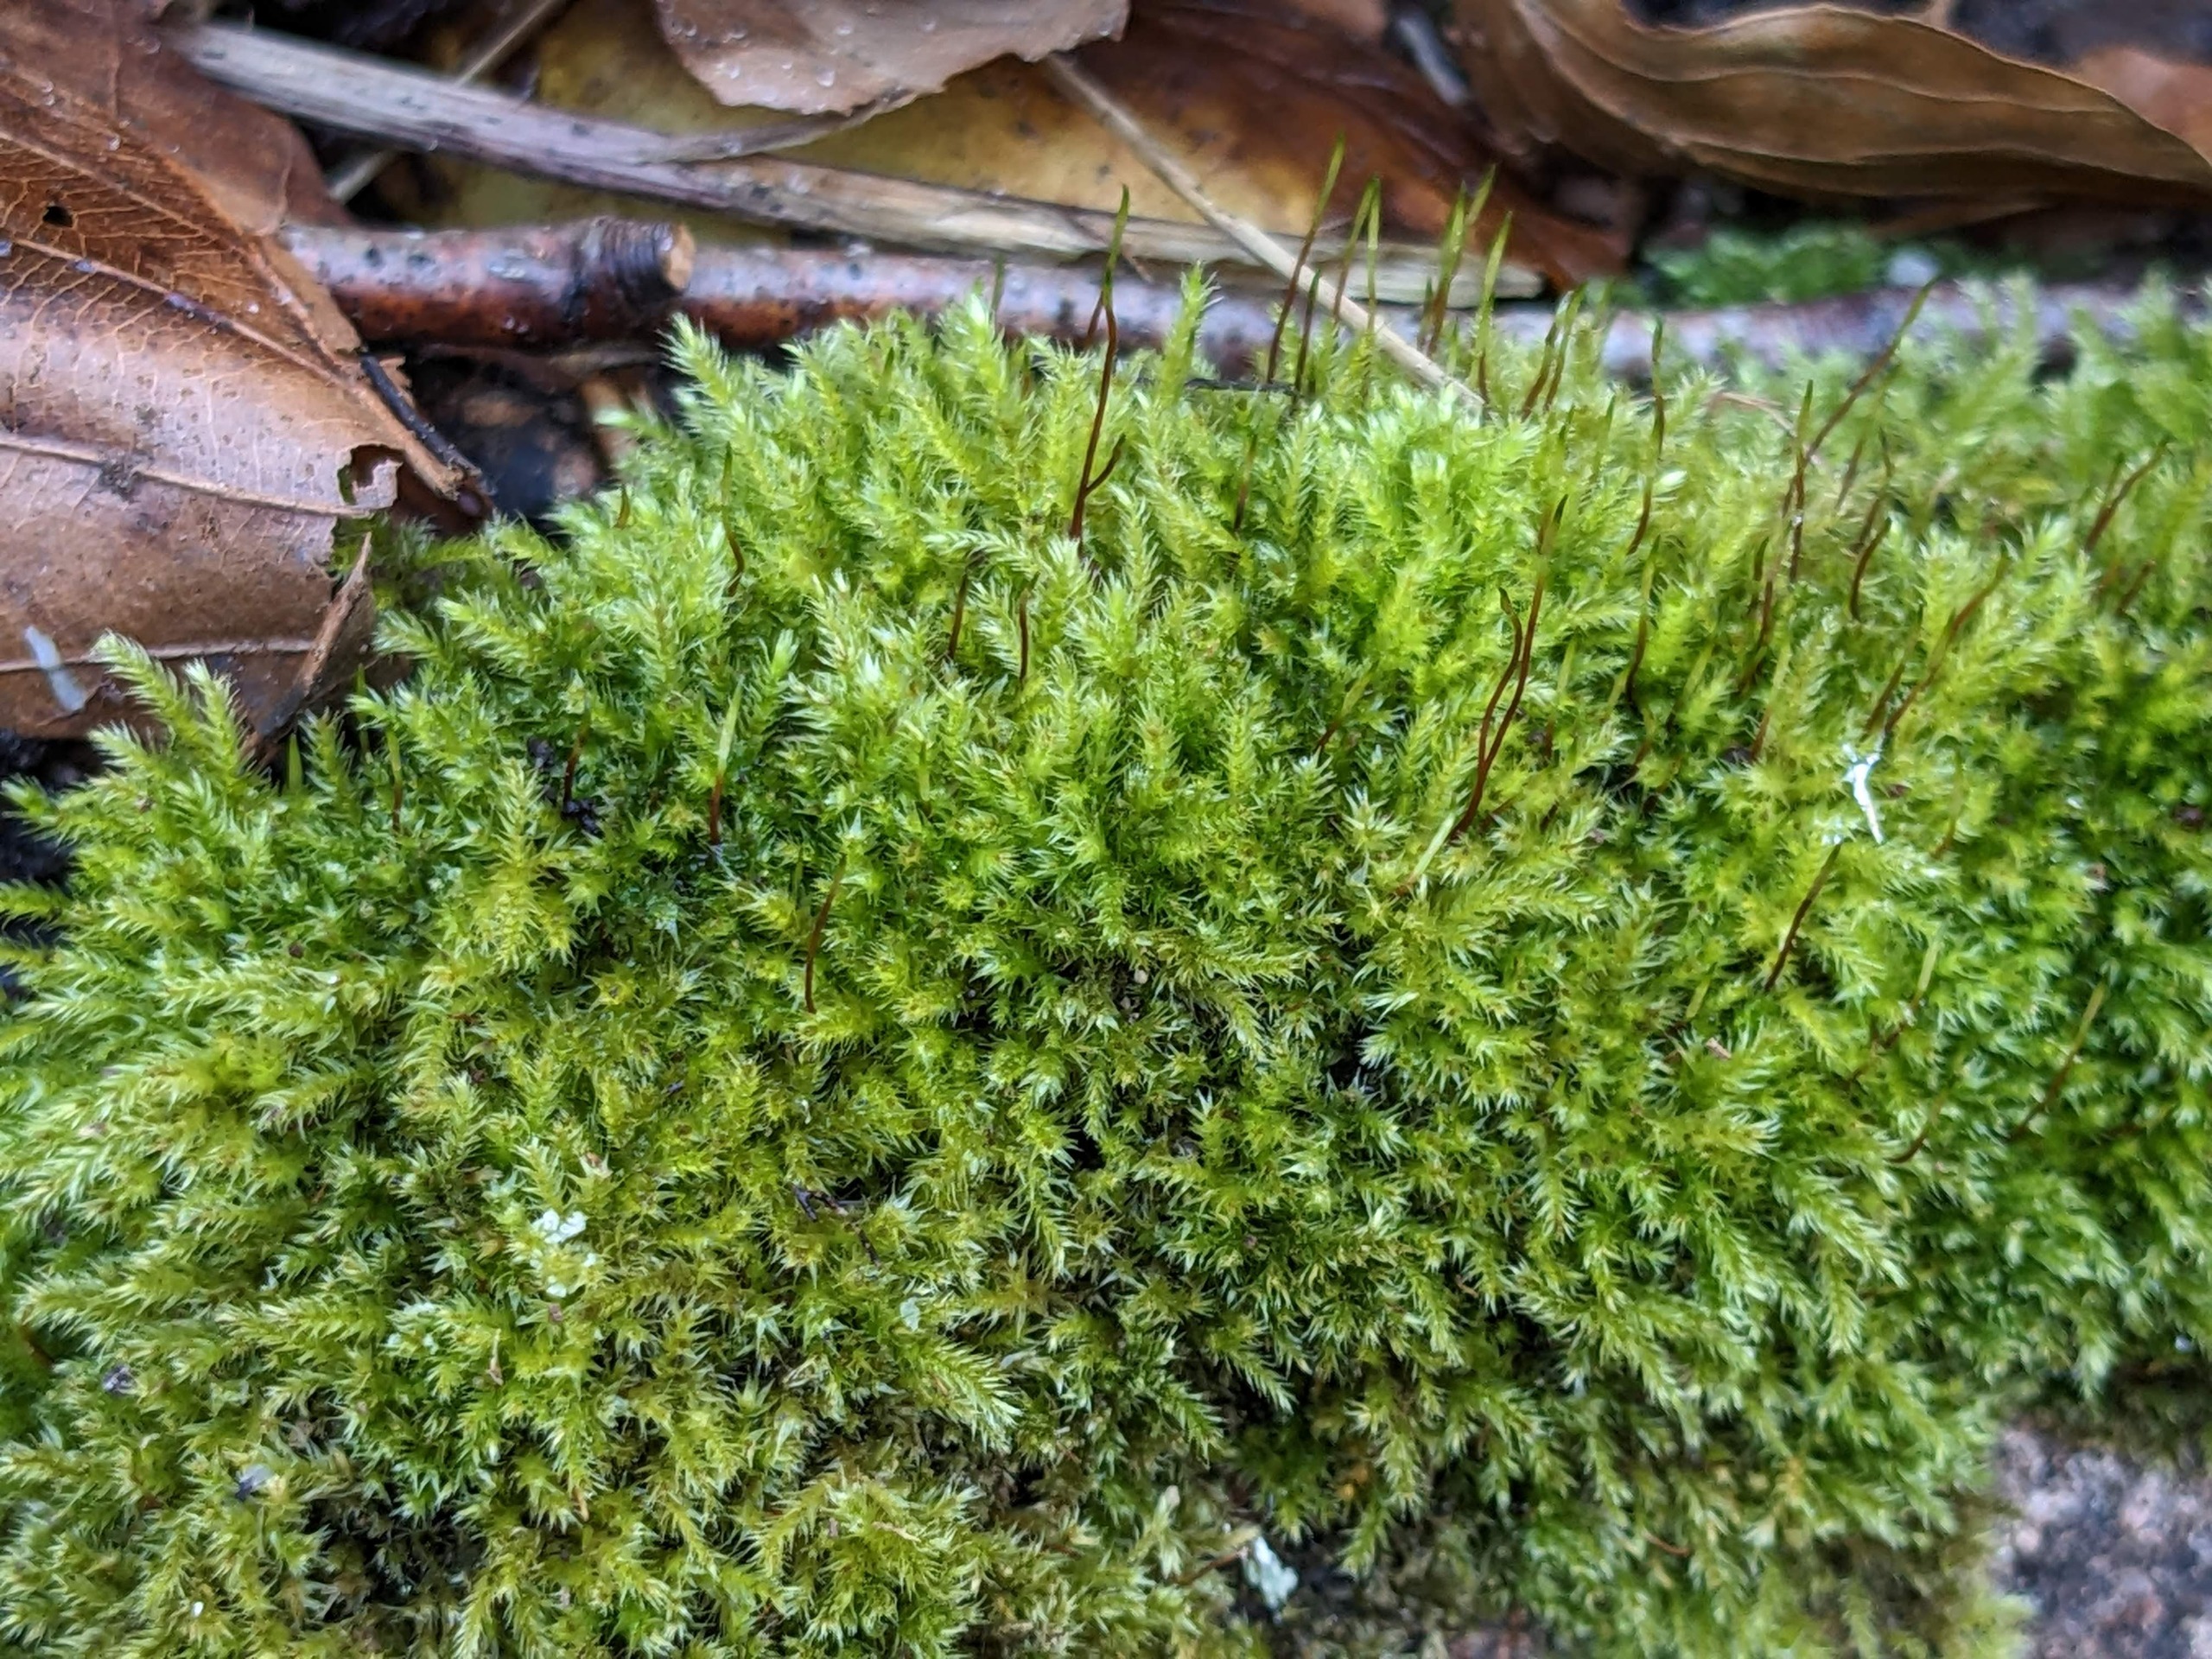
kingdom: Plantae
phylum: Bryophyta
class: Bryopsida
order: Hypnales
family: Brachytheciaceae
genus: Brachytheciastrum
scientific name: Brachytheciastrum velutinum
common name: Fløjls-kortkapsel
